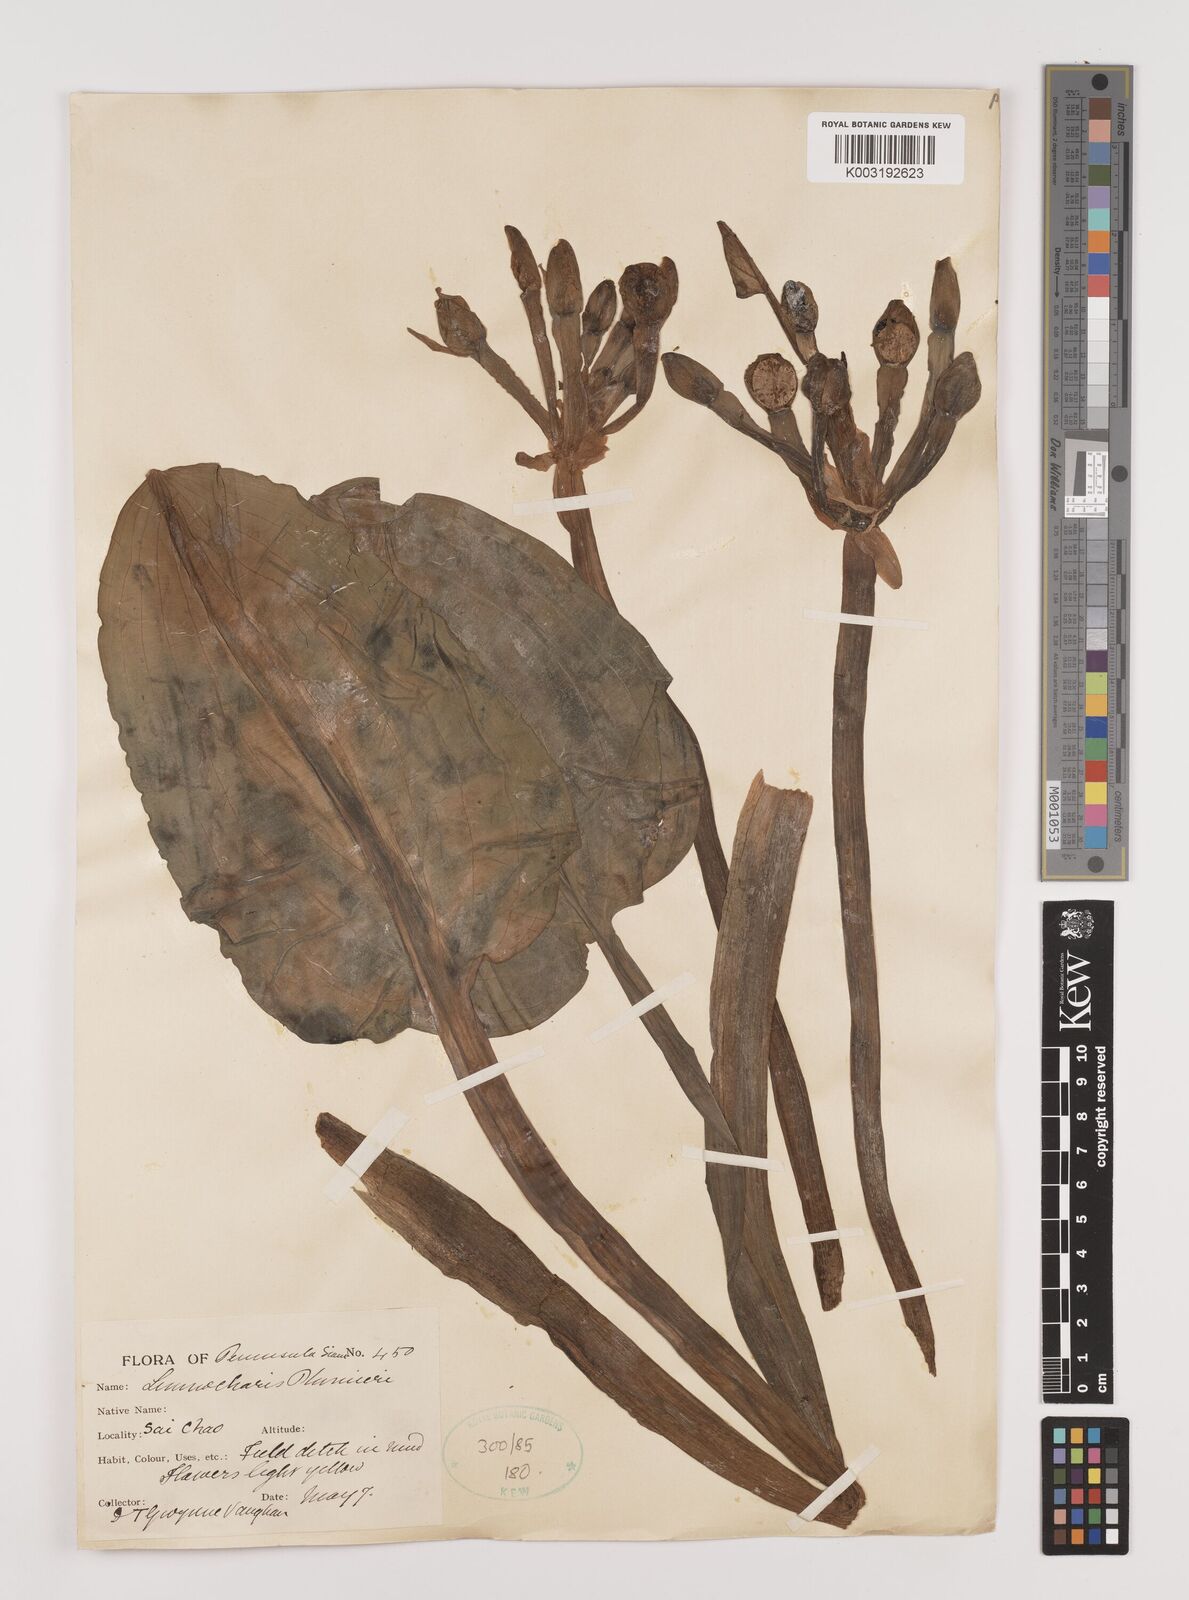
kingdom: Plantae
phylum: Tracheophyta
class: Liliopsida
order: Alismatales
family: Alismataceae
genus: Limnocharis
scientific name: Limnocharis flava
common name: Sawah-flower-rush
